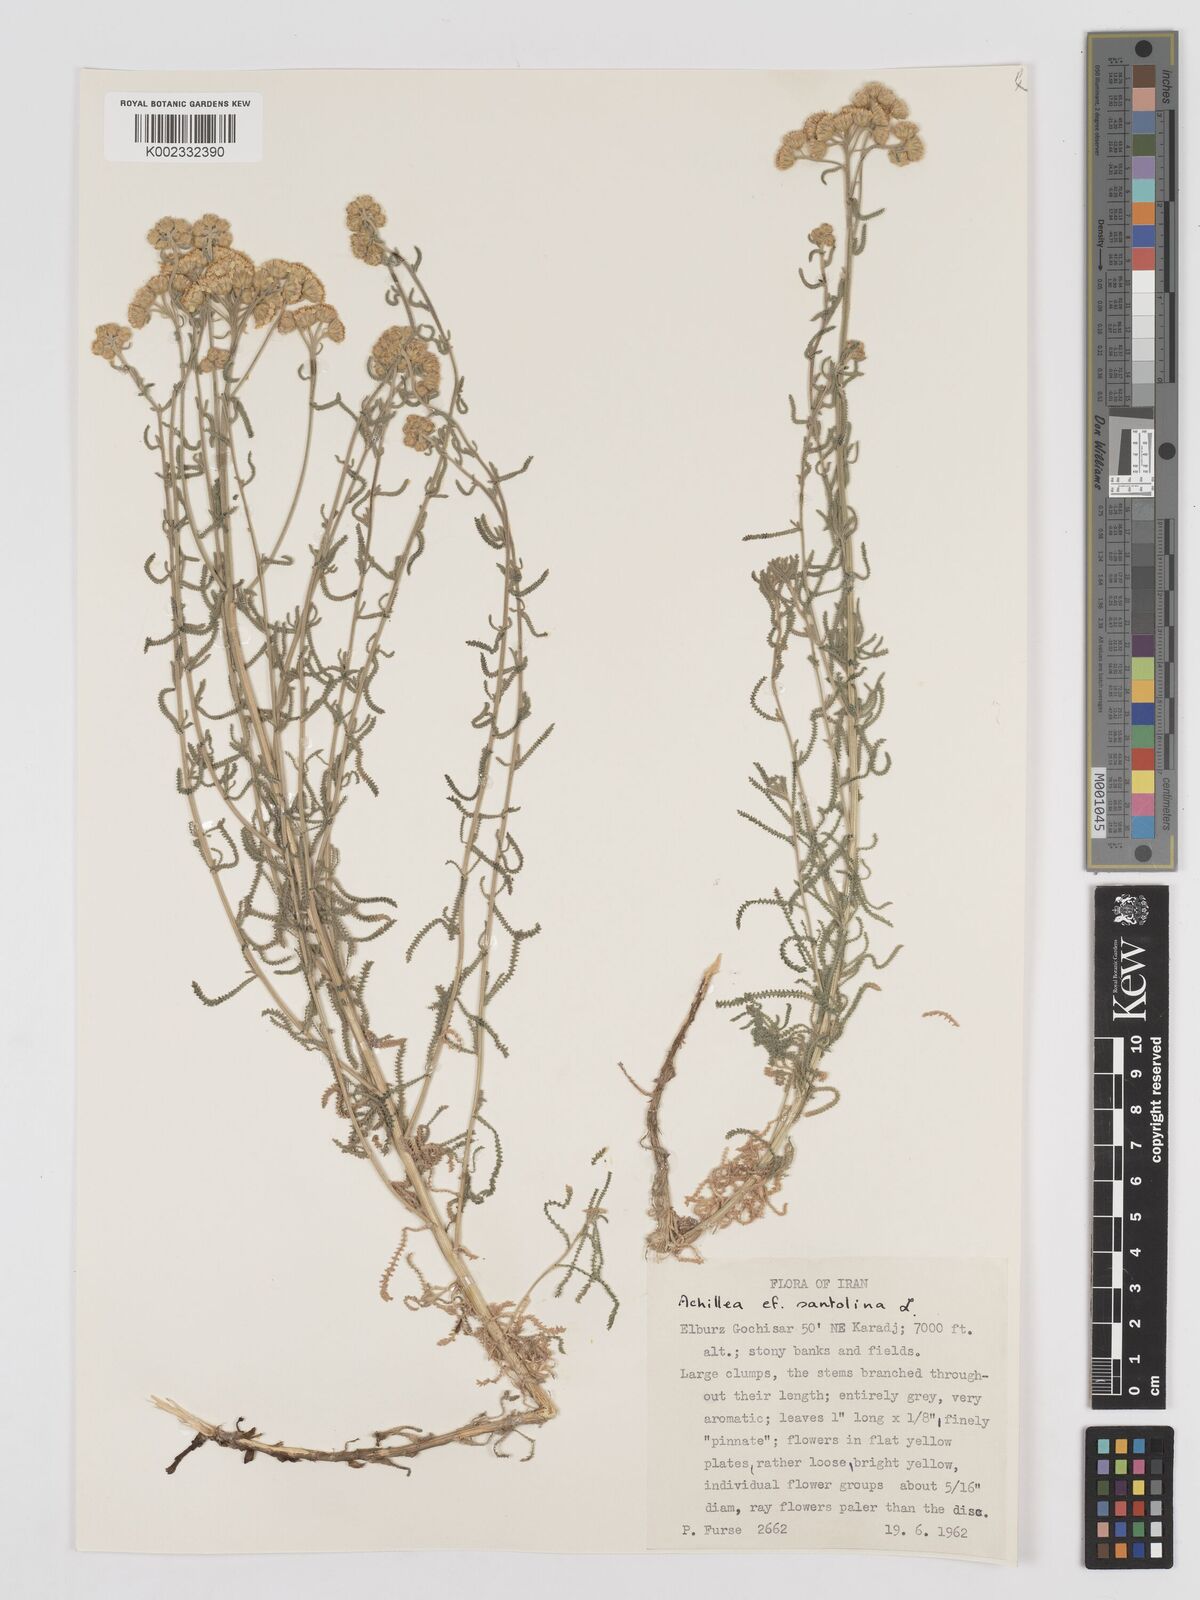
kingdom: Plantae
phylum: Tracheophyta
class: Magnoliopsida
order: Asterales
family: Asteraceae
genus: Achillea
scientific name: Achillea cretica
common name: Chamomile-leaved lavender-cotton
